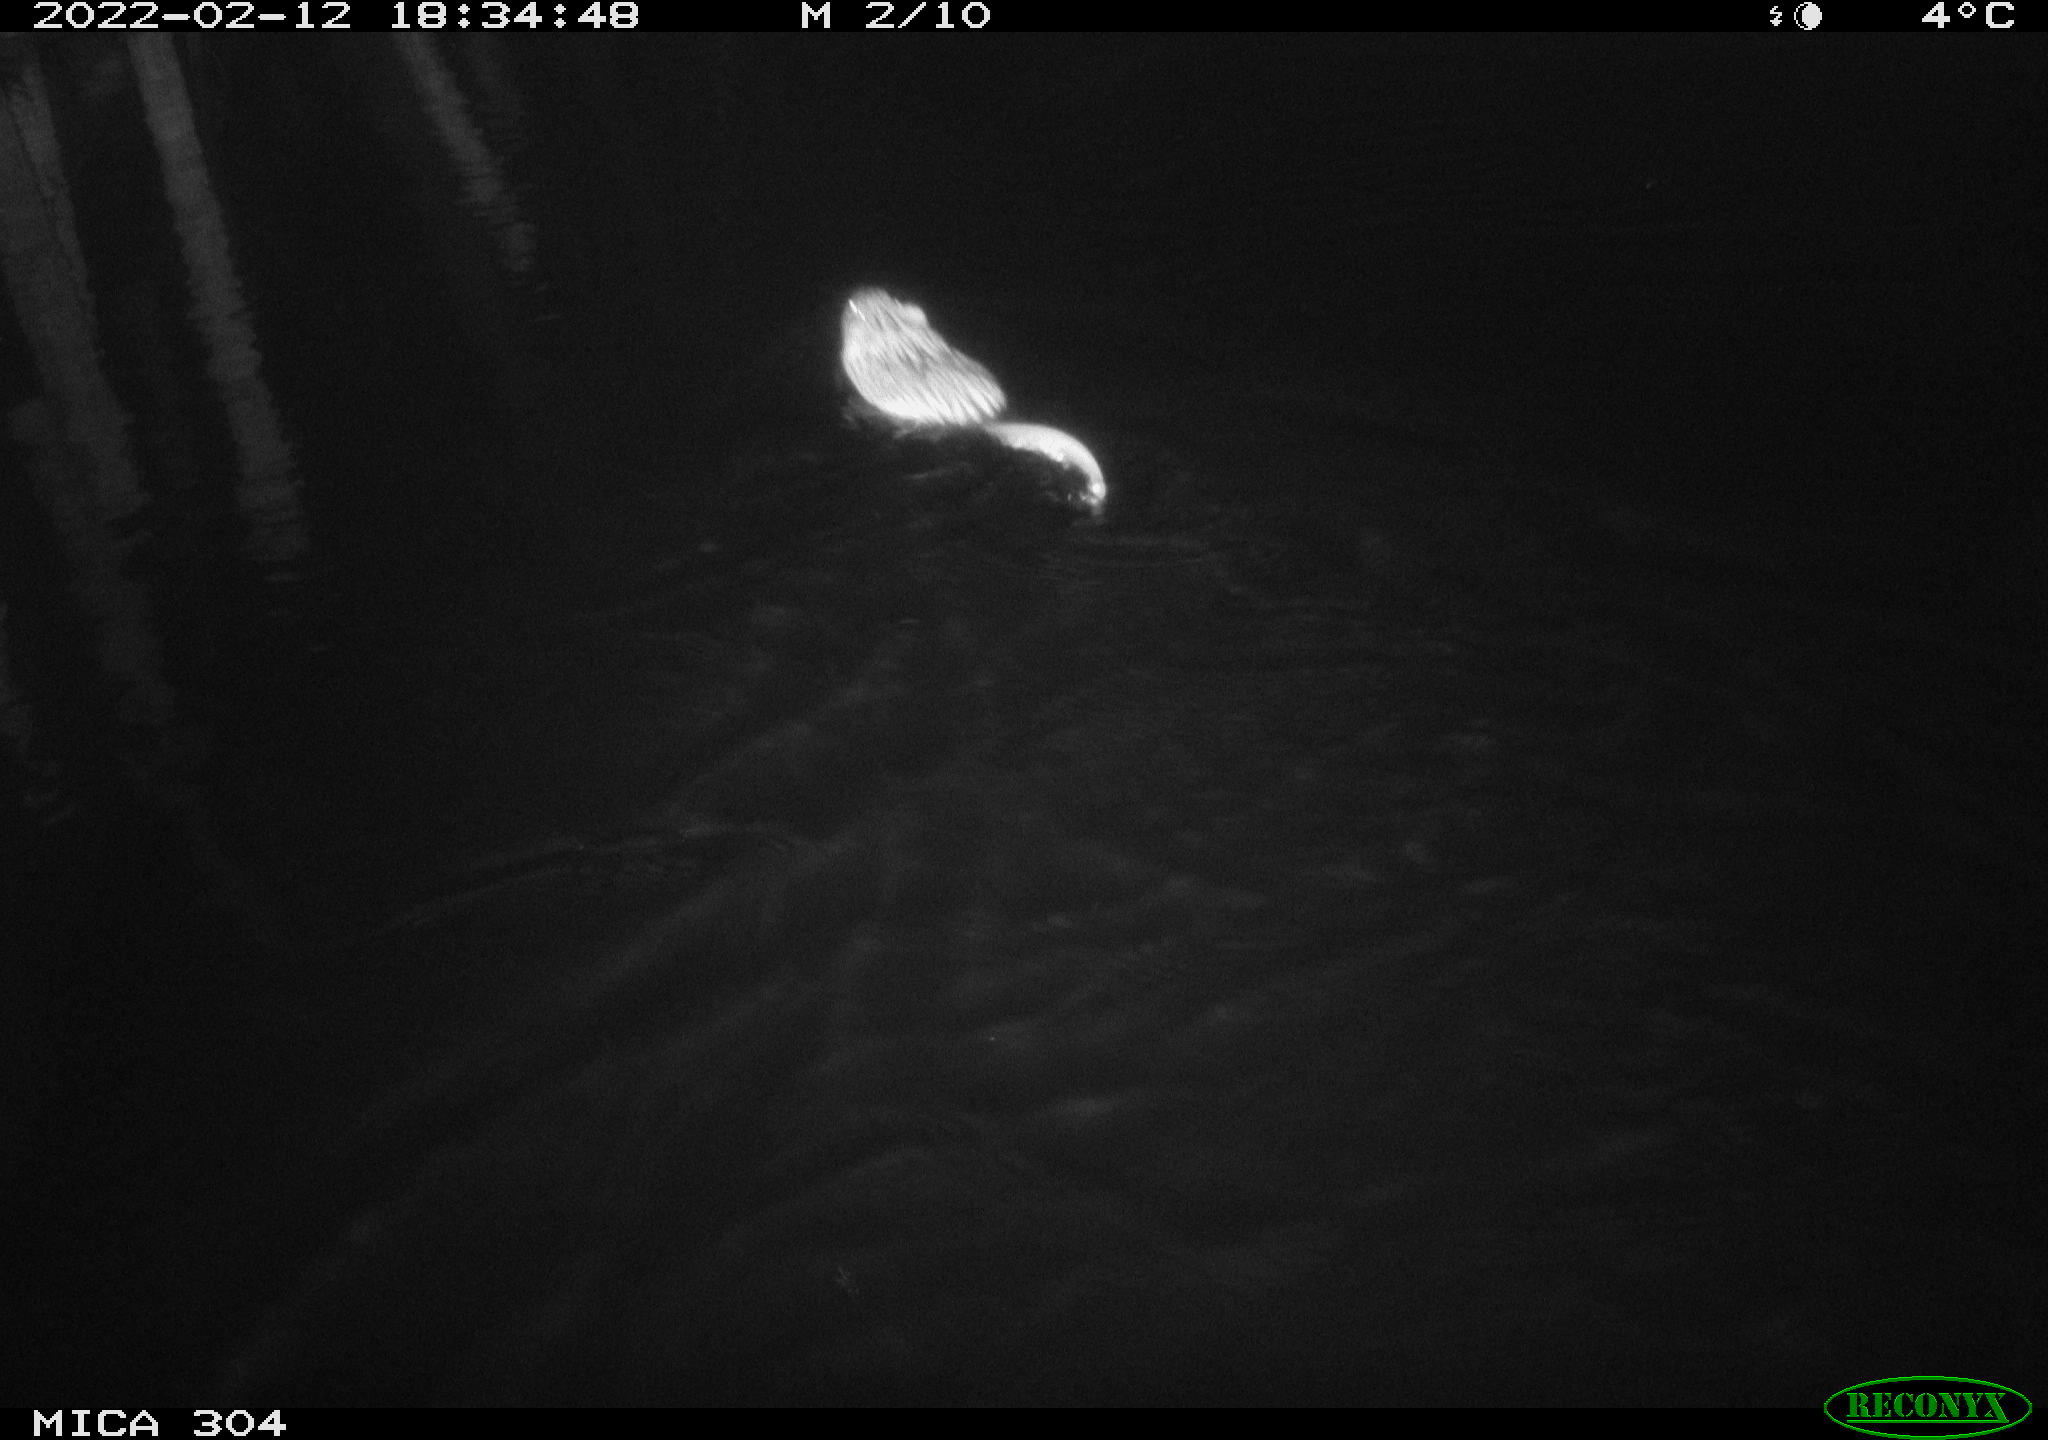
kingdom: Animalia
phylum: Chordata
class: Mammalia
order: Rodentia
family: Cricetidae
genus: Ondatra
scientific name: Ondatra zibethicus
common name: Muskrat
